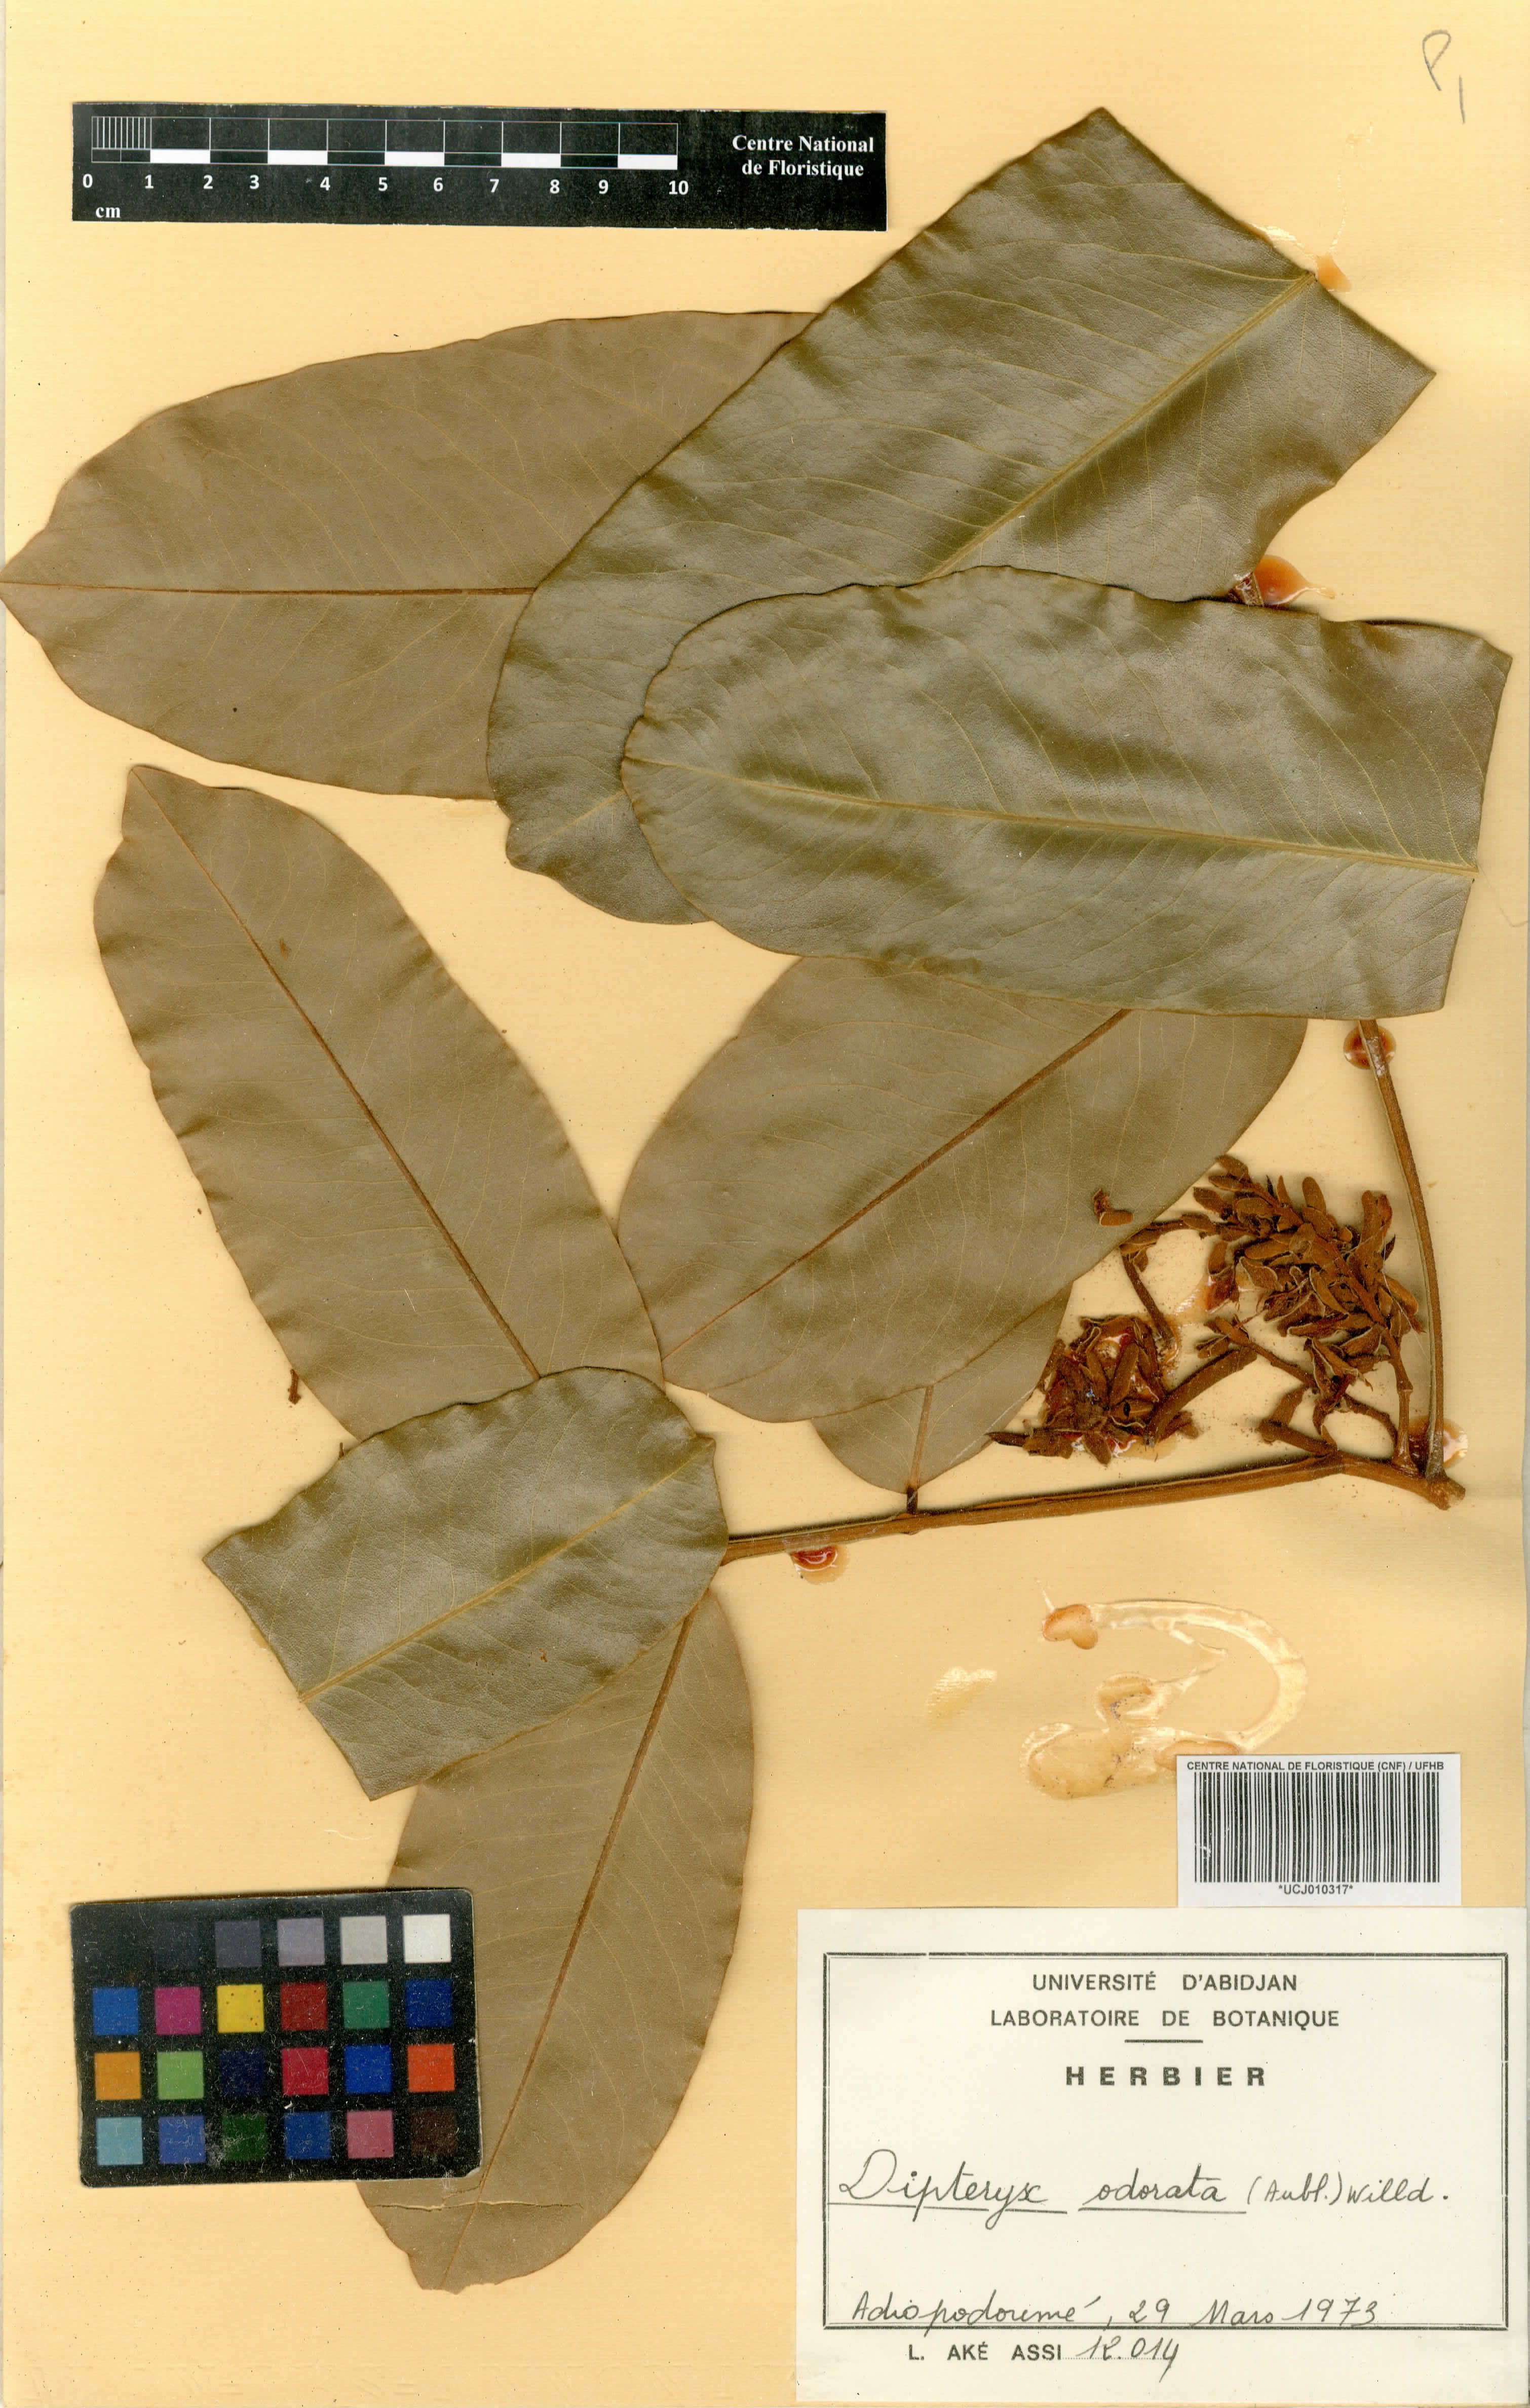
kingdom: Plantae
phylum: Tracheophyta
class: Magnoliopsida
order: Fabales
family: Fabaceae
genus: Dipteryx
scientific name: Dipteryx odorata
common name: Tonka
